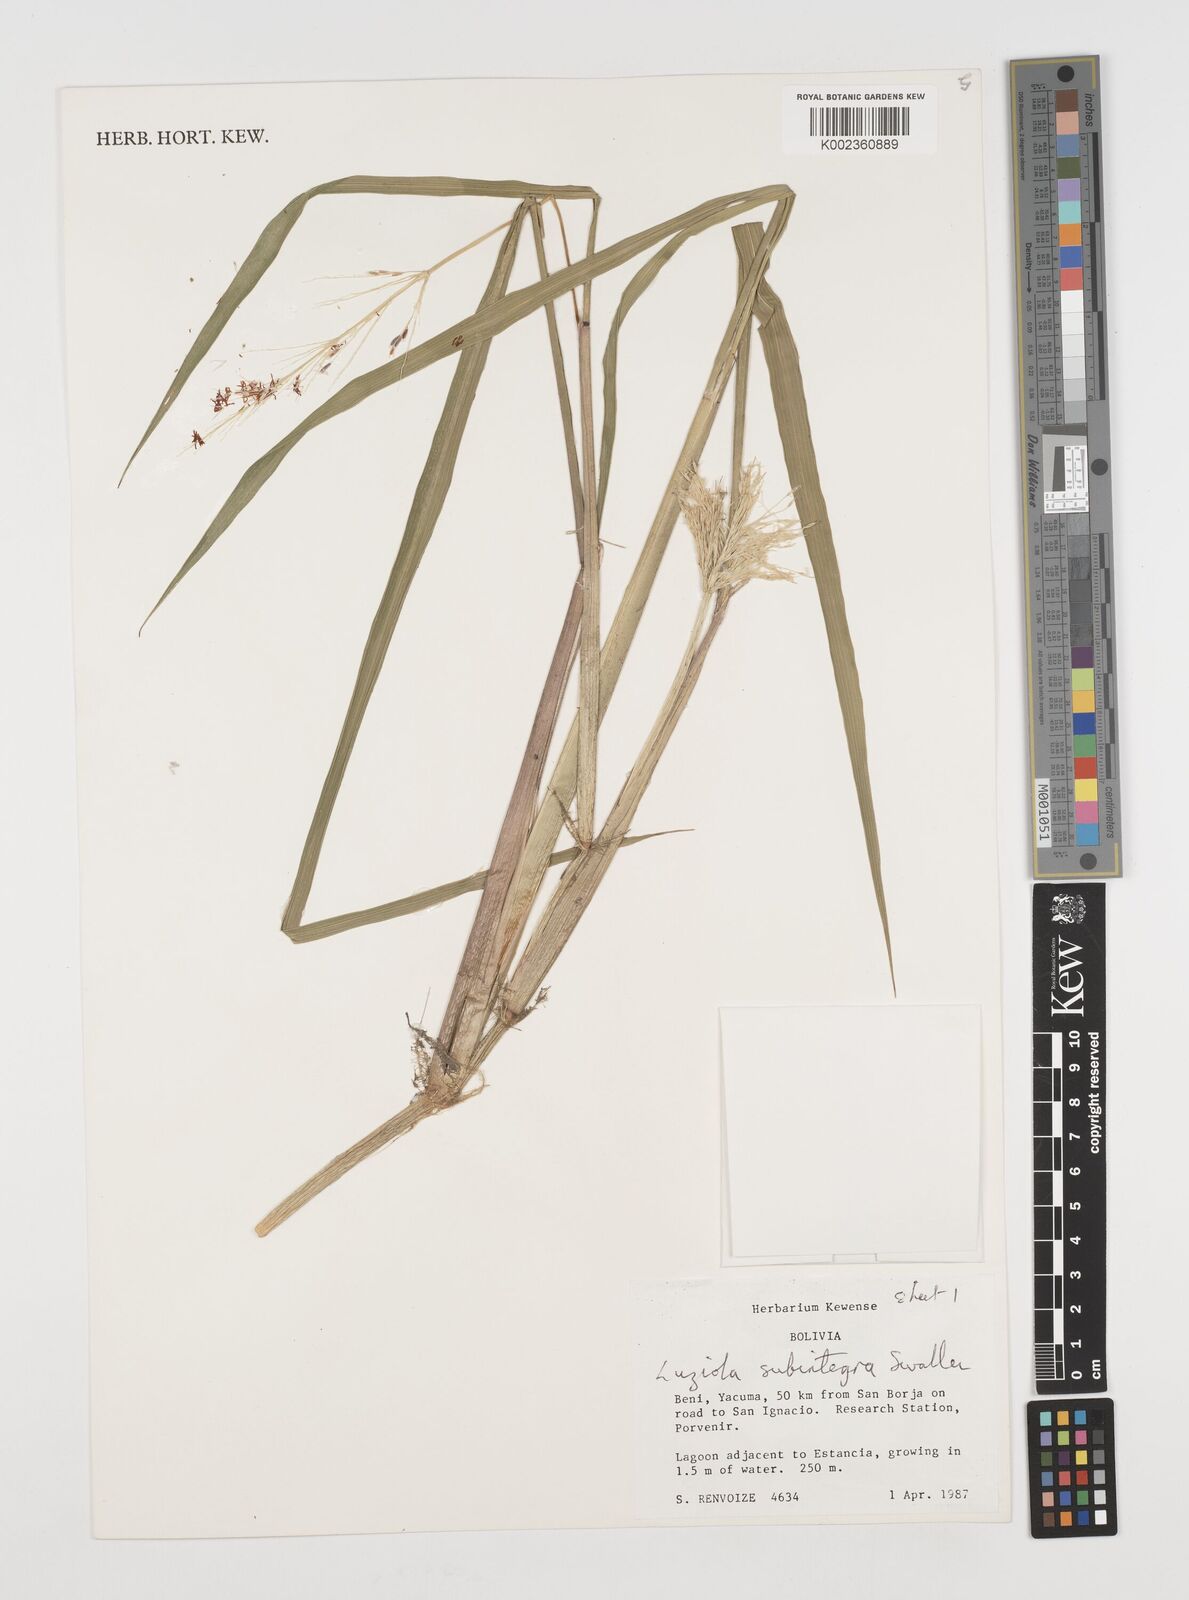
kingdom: Plantae
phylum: Tracheophyta
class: Liliopsida
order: Poales
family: Poaceae
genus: Luziola
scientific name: Luziola subintegra
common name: Large watergrass
